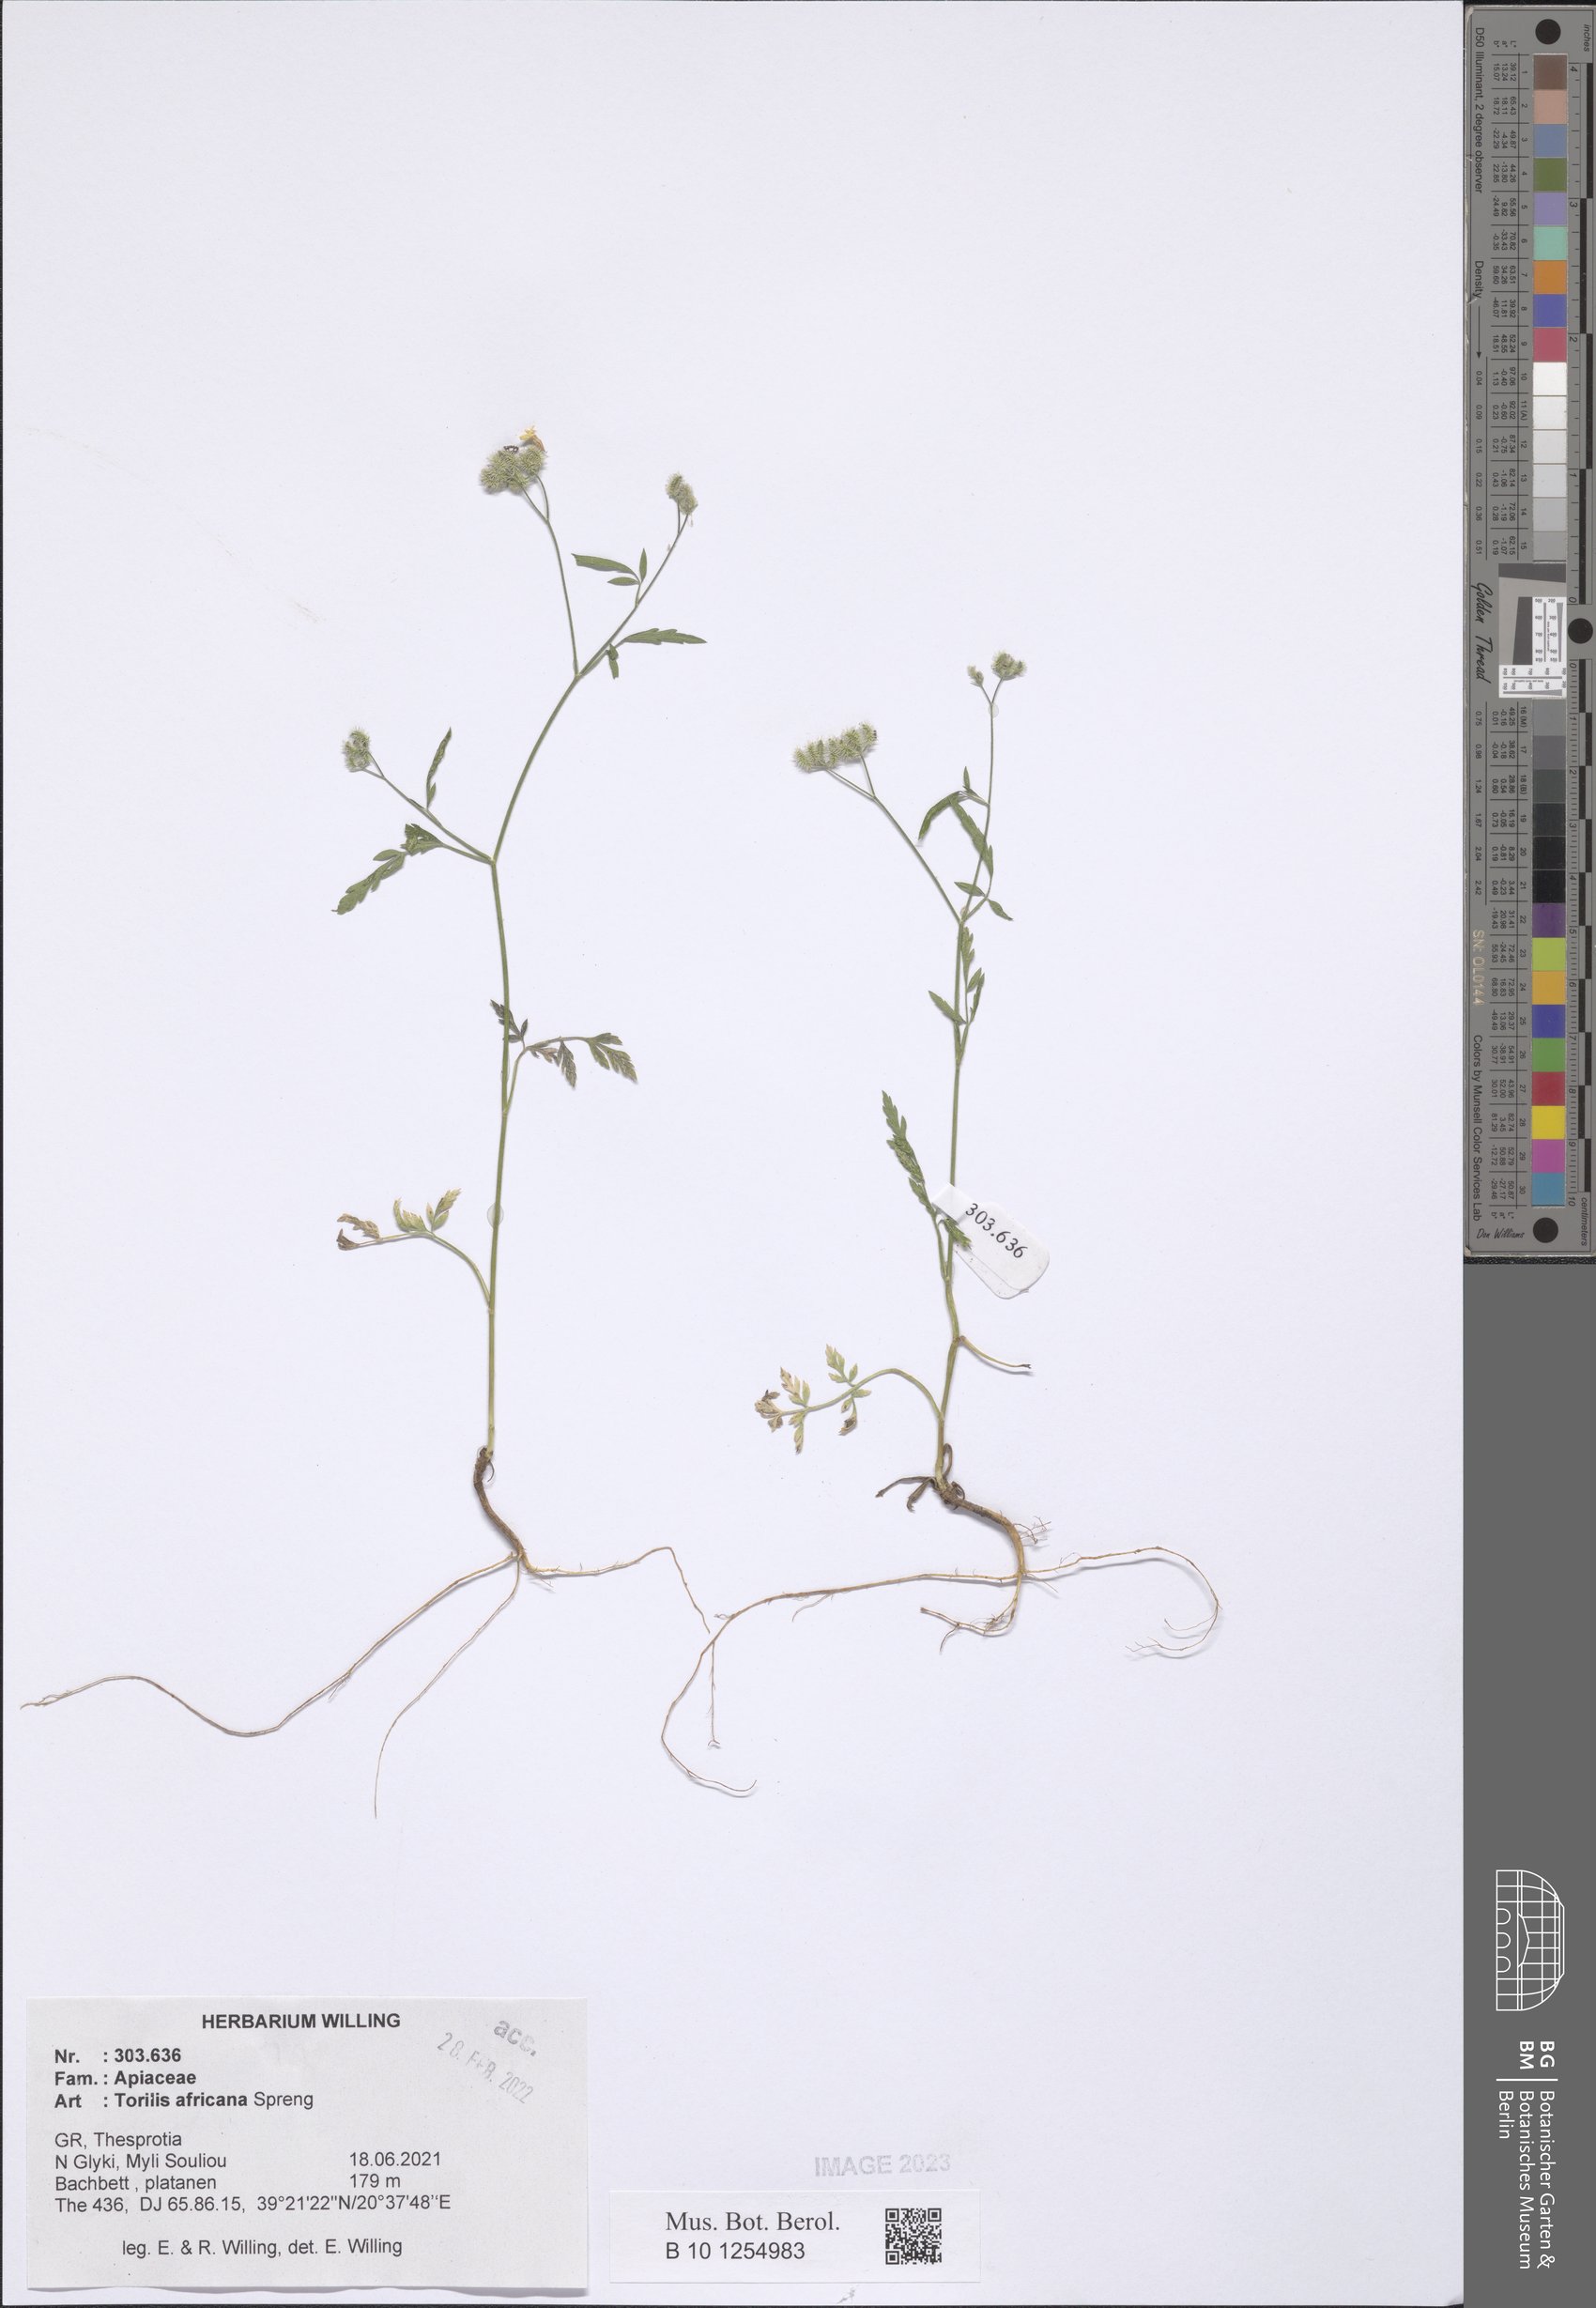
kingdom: Plantae
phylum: Tracheophyta
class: Magnoliopsida
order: Apiales
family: Apiaceae
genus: Torilis
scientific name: Torilis africana
